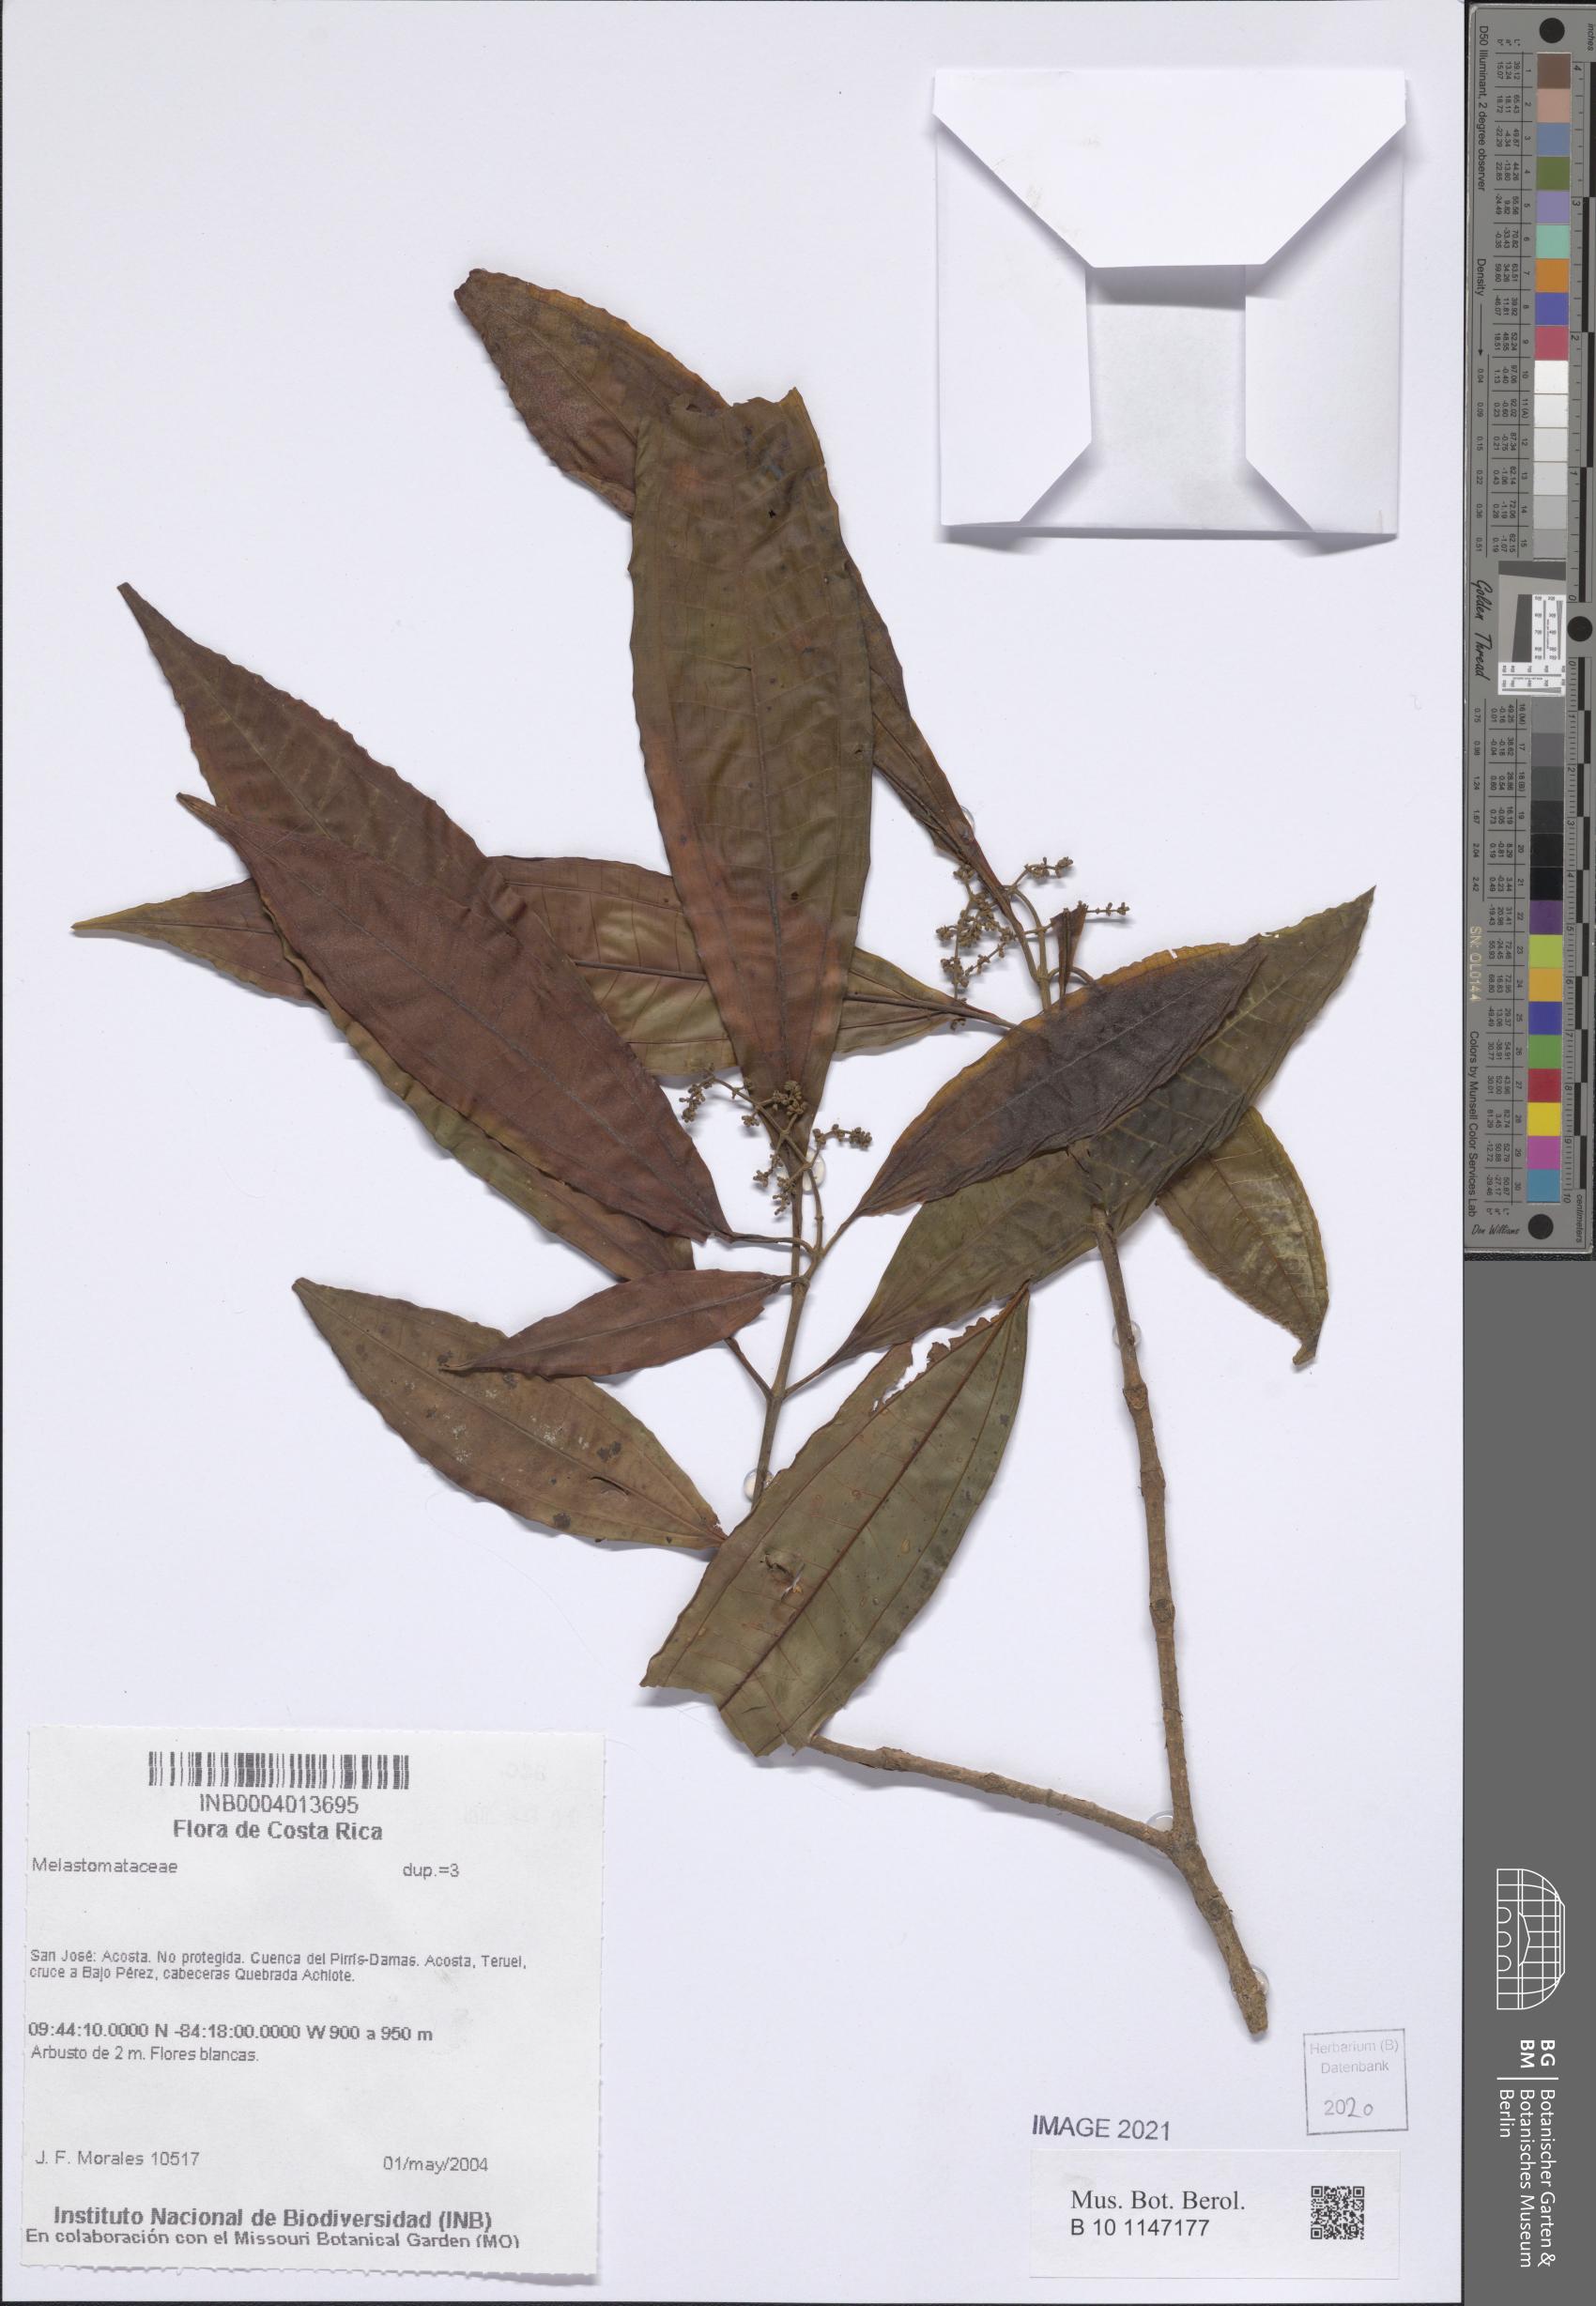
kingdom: Plantae
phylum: Tracheophyta
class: Magnoliopsida
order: Myrtales
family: Melastomataceae
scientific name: Melastomataceae
